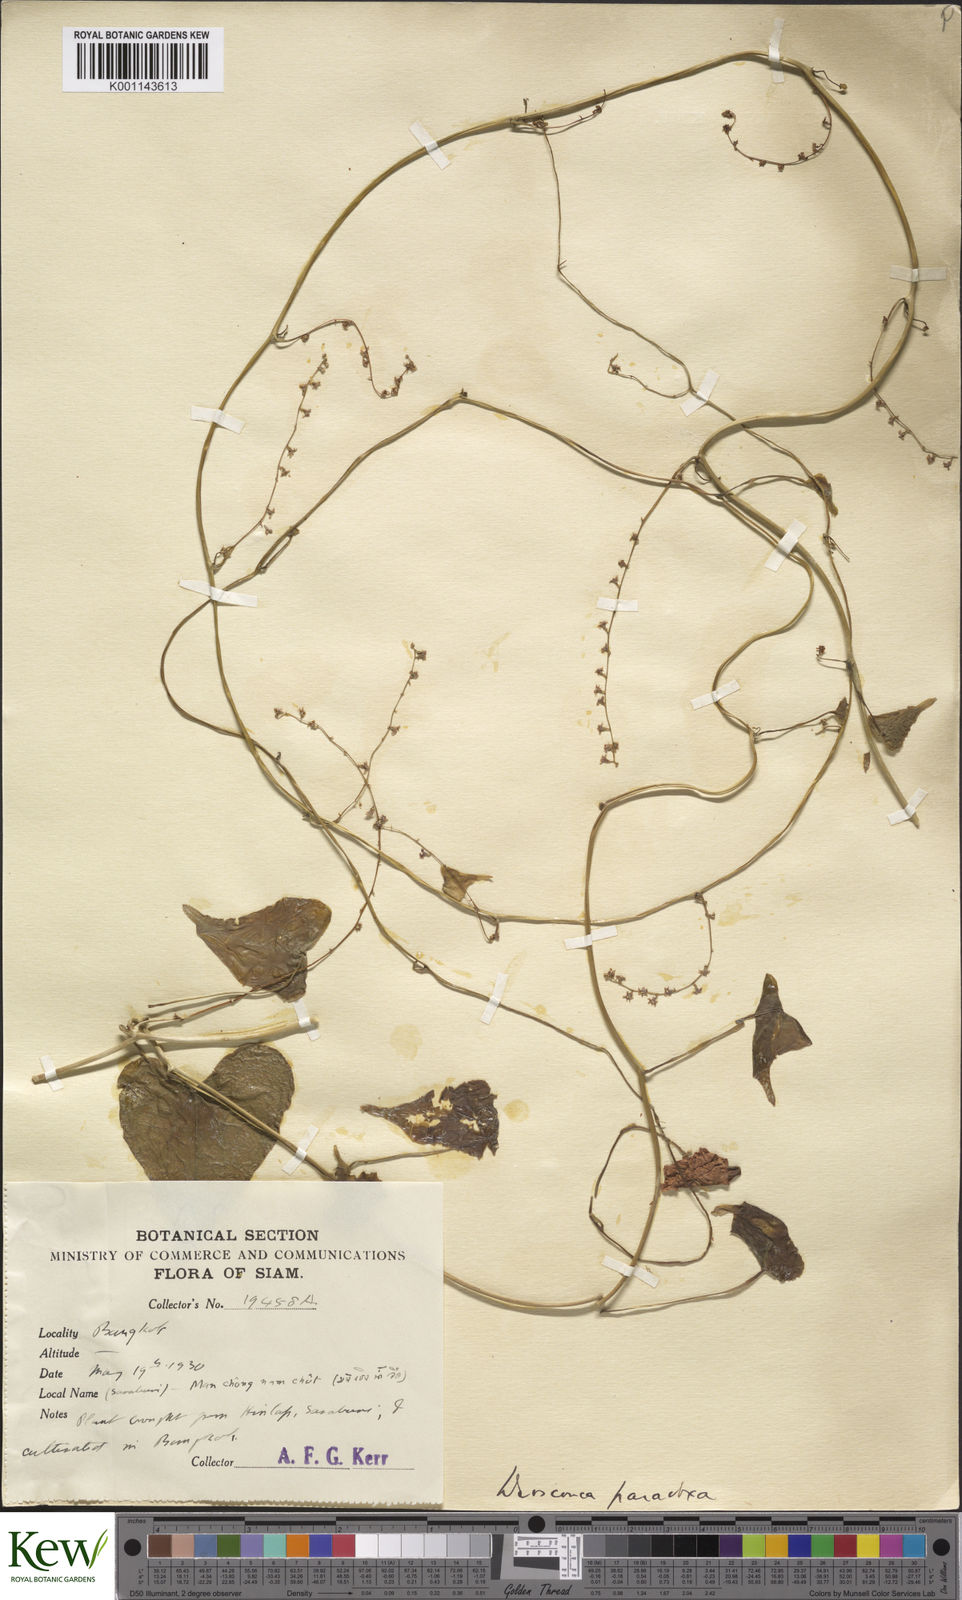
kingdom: Plantae
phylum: Tracheophyta
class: Liliopsida
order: Dioscoreales
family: Dioscoreaceae
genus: Dioscorea
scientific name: Dioscorea paradoxa
